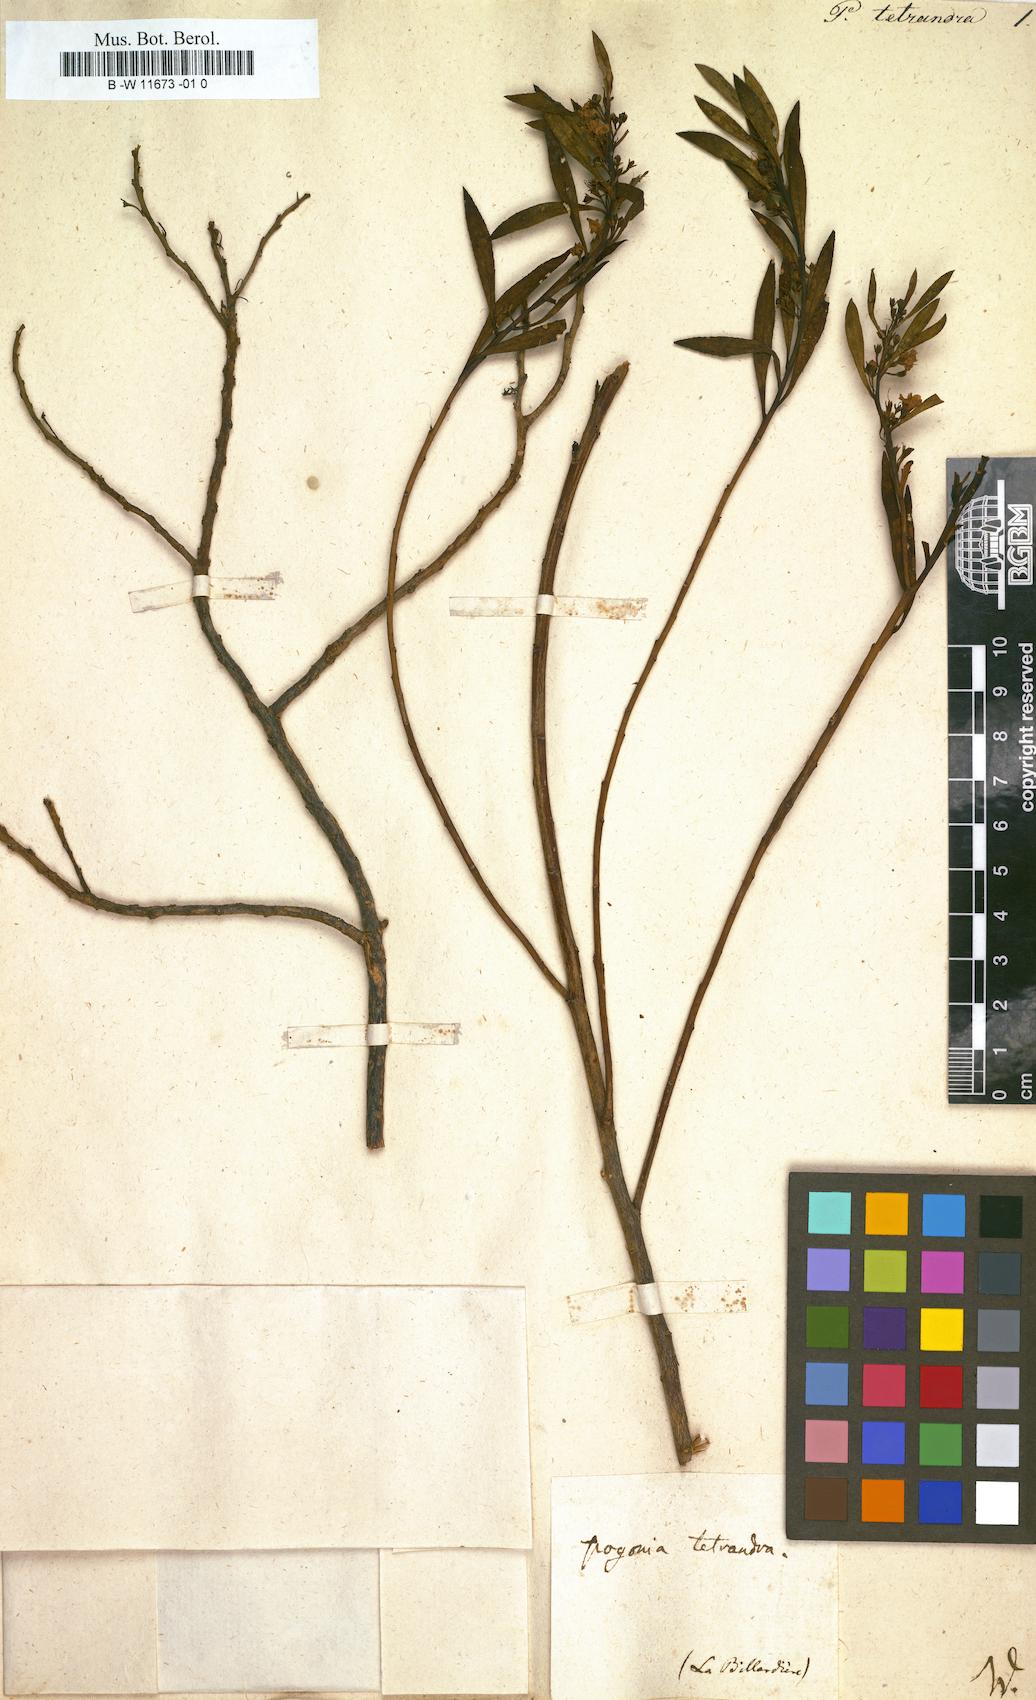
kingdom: Plantae
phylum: Tracheophyta
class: Magnoliopsida
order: Lamiales
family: Scrophulariaceae
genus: Myoporum
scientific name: Myoporum tetrandrum
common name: Boobialla
